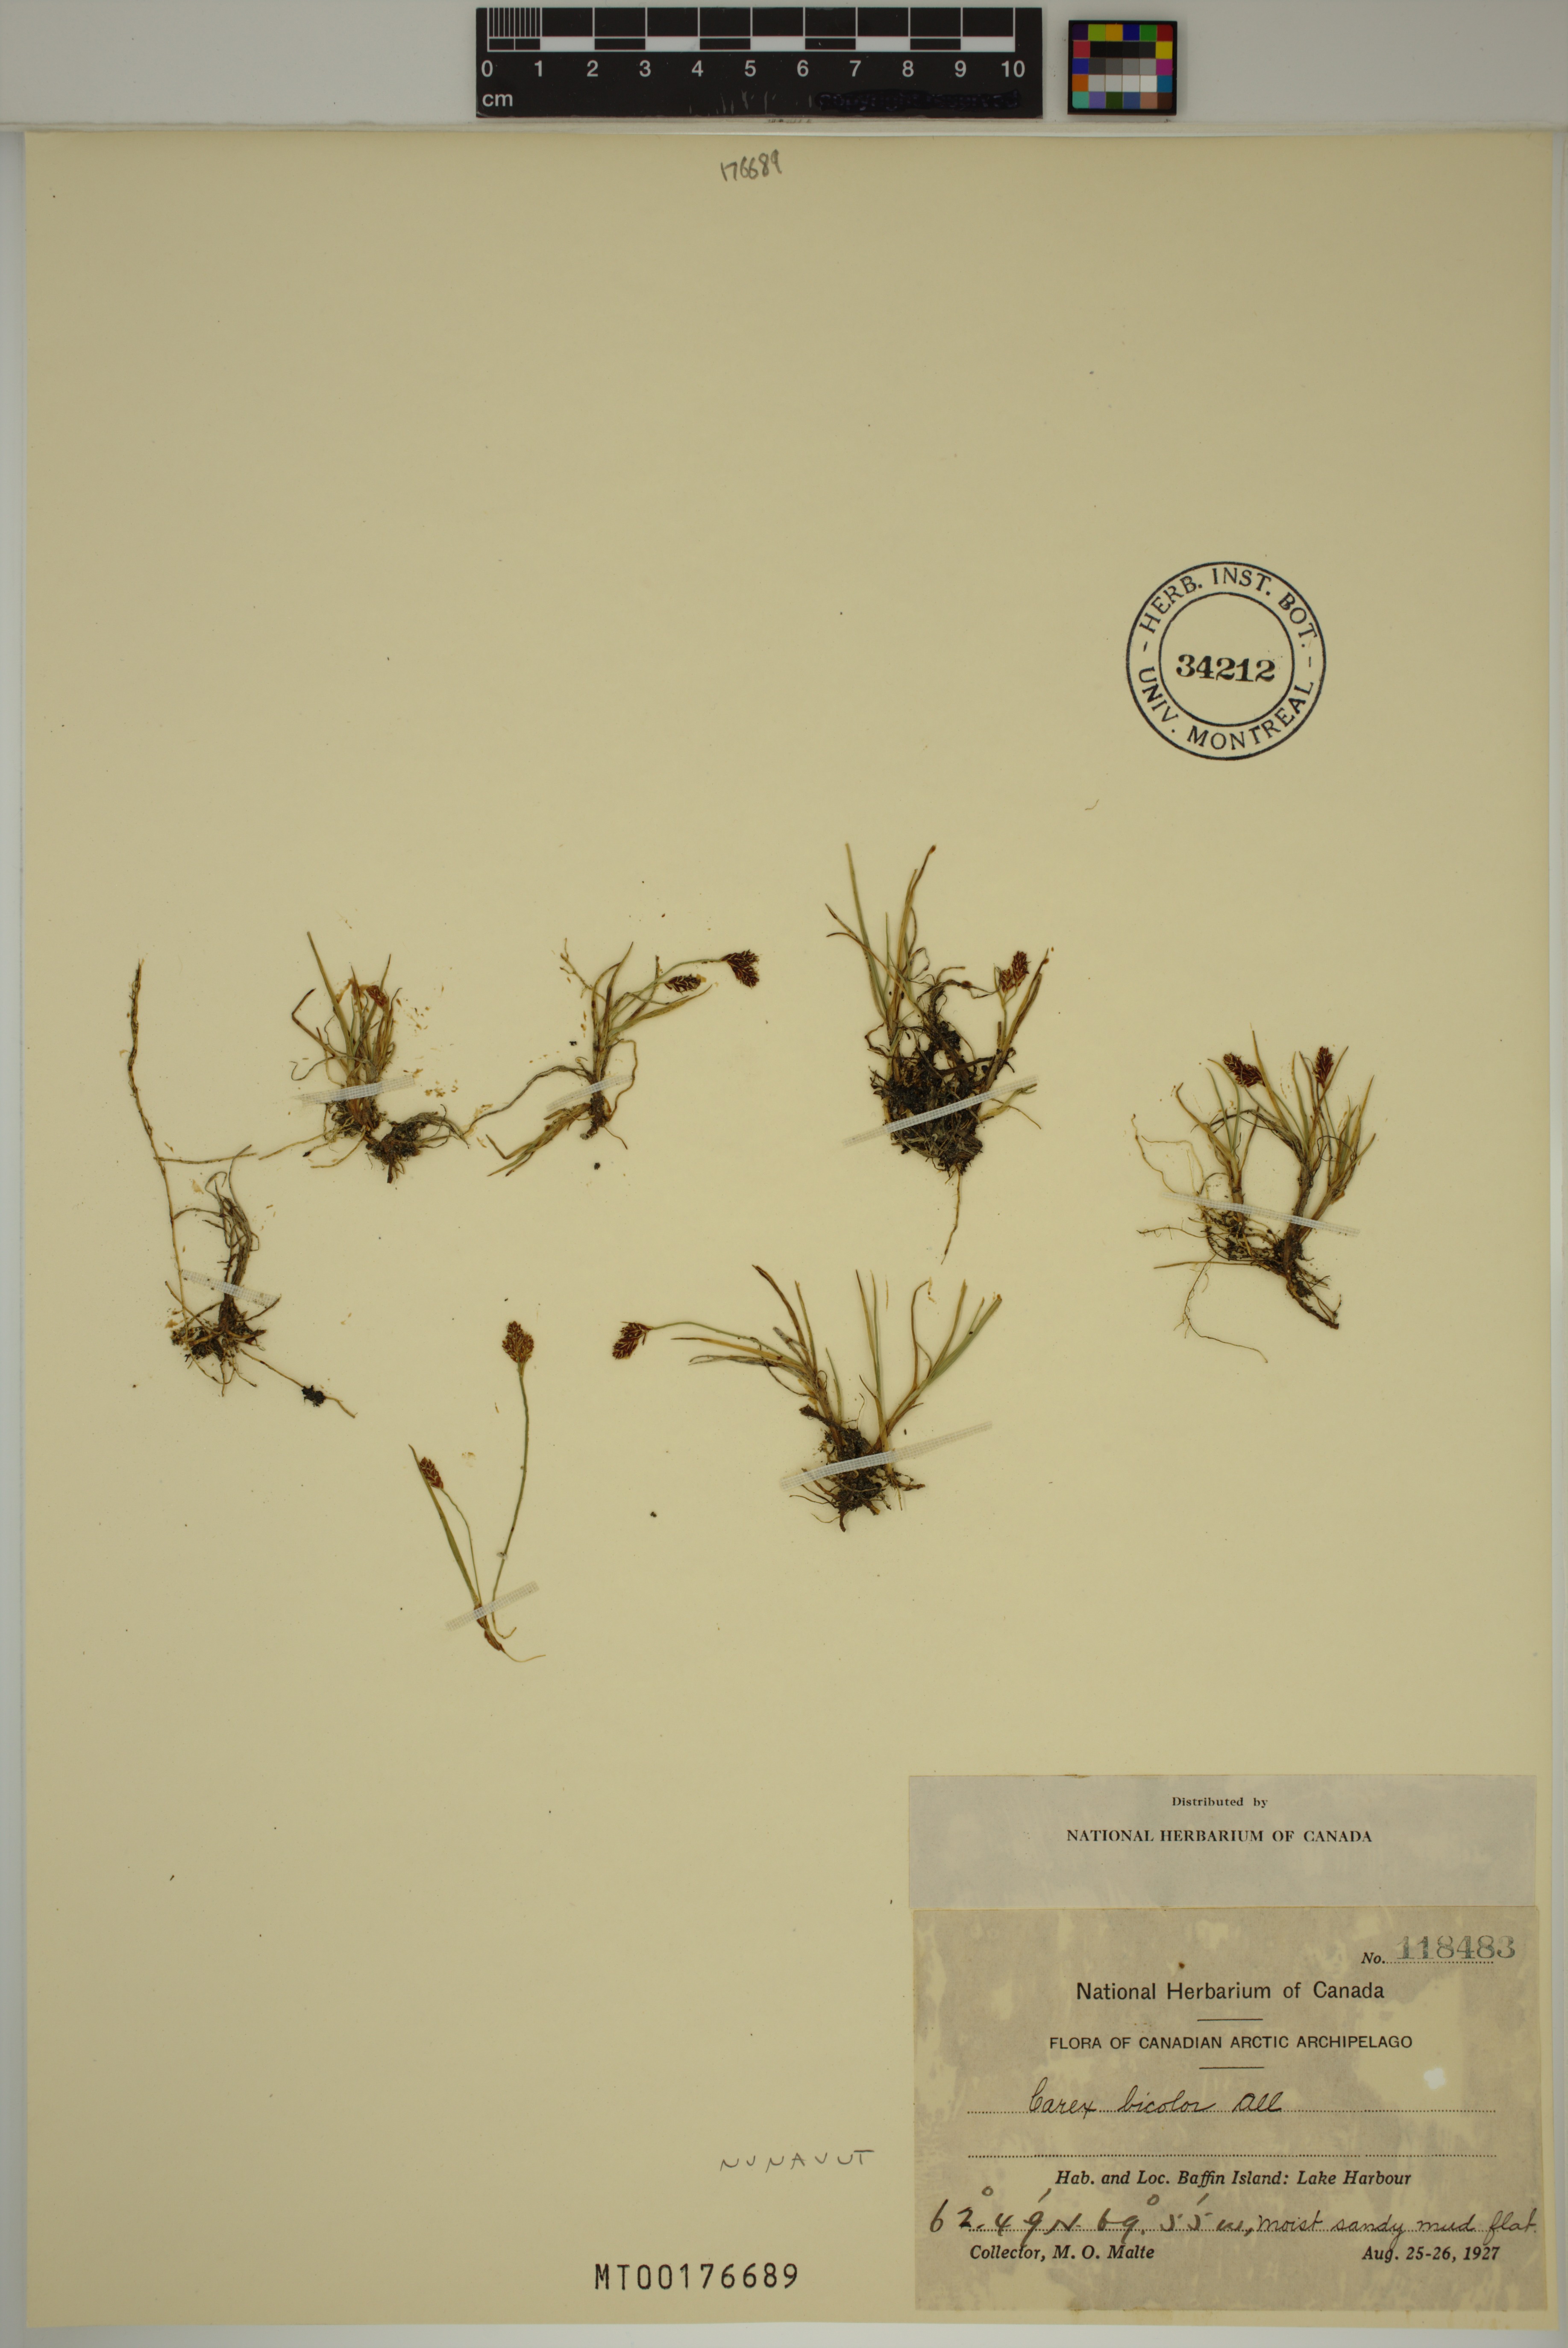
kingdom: Plantae
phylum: Tracheophyta
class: Liliopsida
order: Poales
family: Cyperaceae
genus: Carex
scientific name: Carex bicolor
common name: Bicoloured sedge
